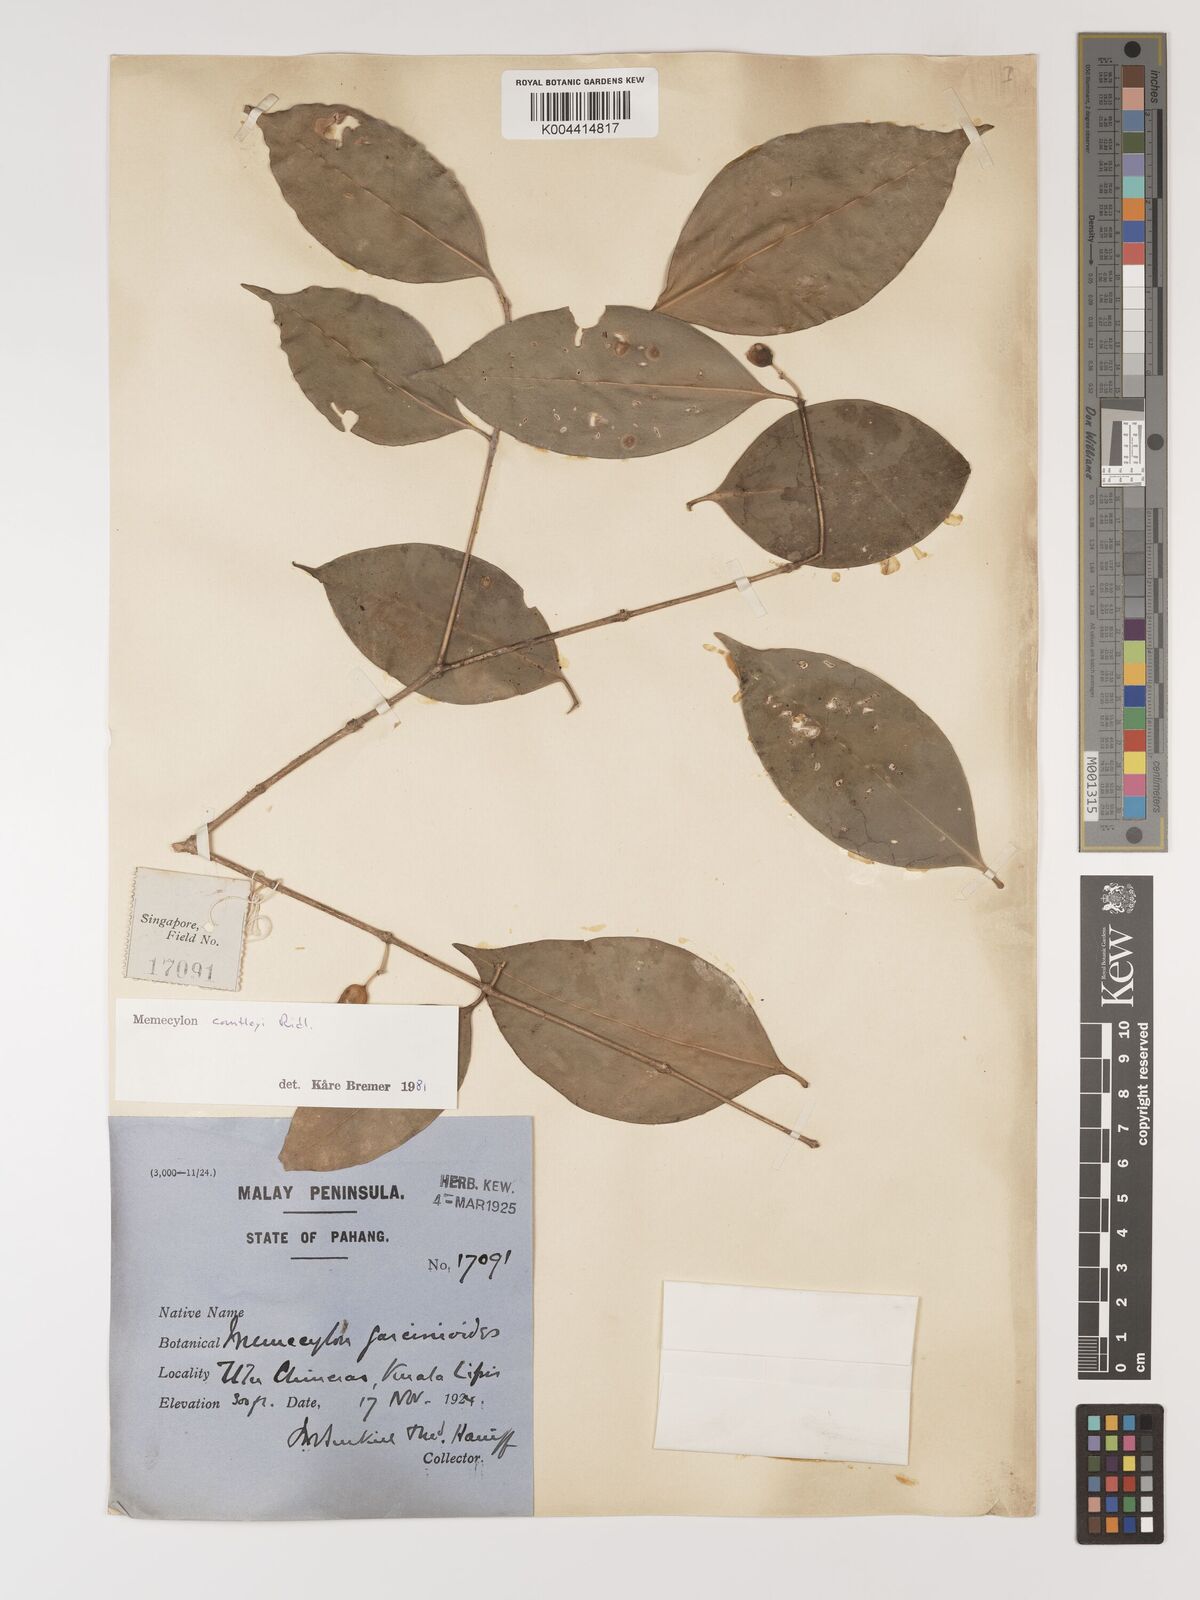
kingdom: Plantae
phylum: Tracheophyta
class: Magnoliopsida
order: Myrtales
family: Melastomataceae
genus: Memecylon
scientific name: Memecylon cantleyi
